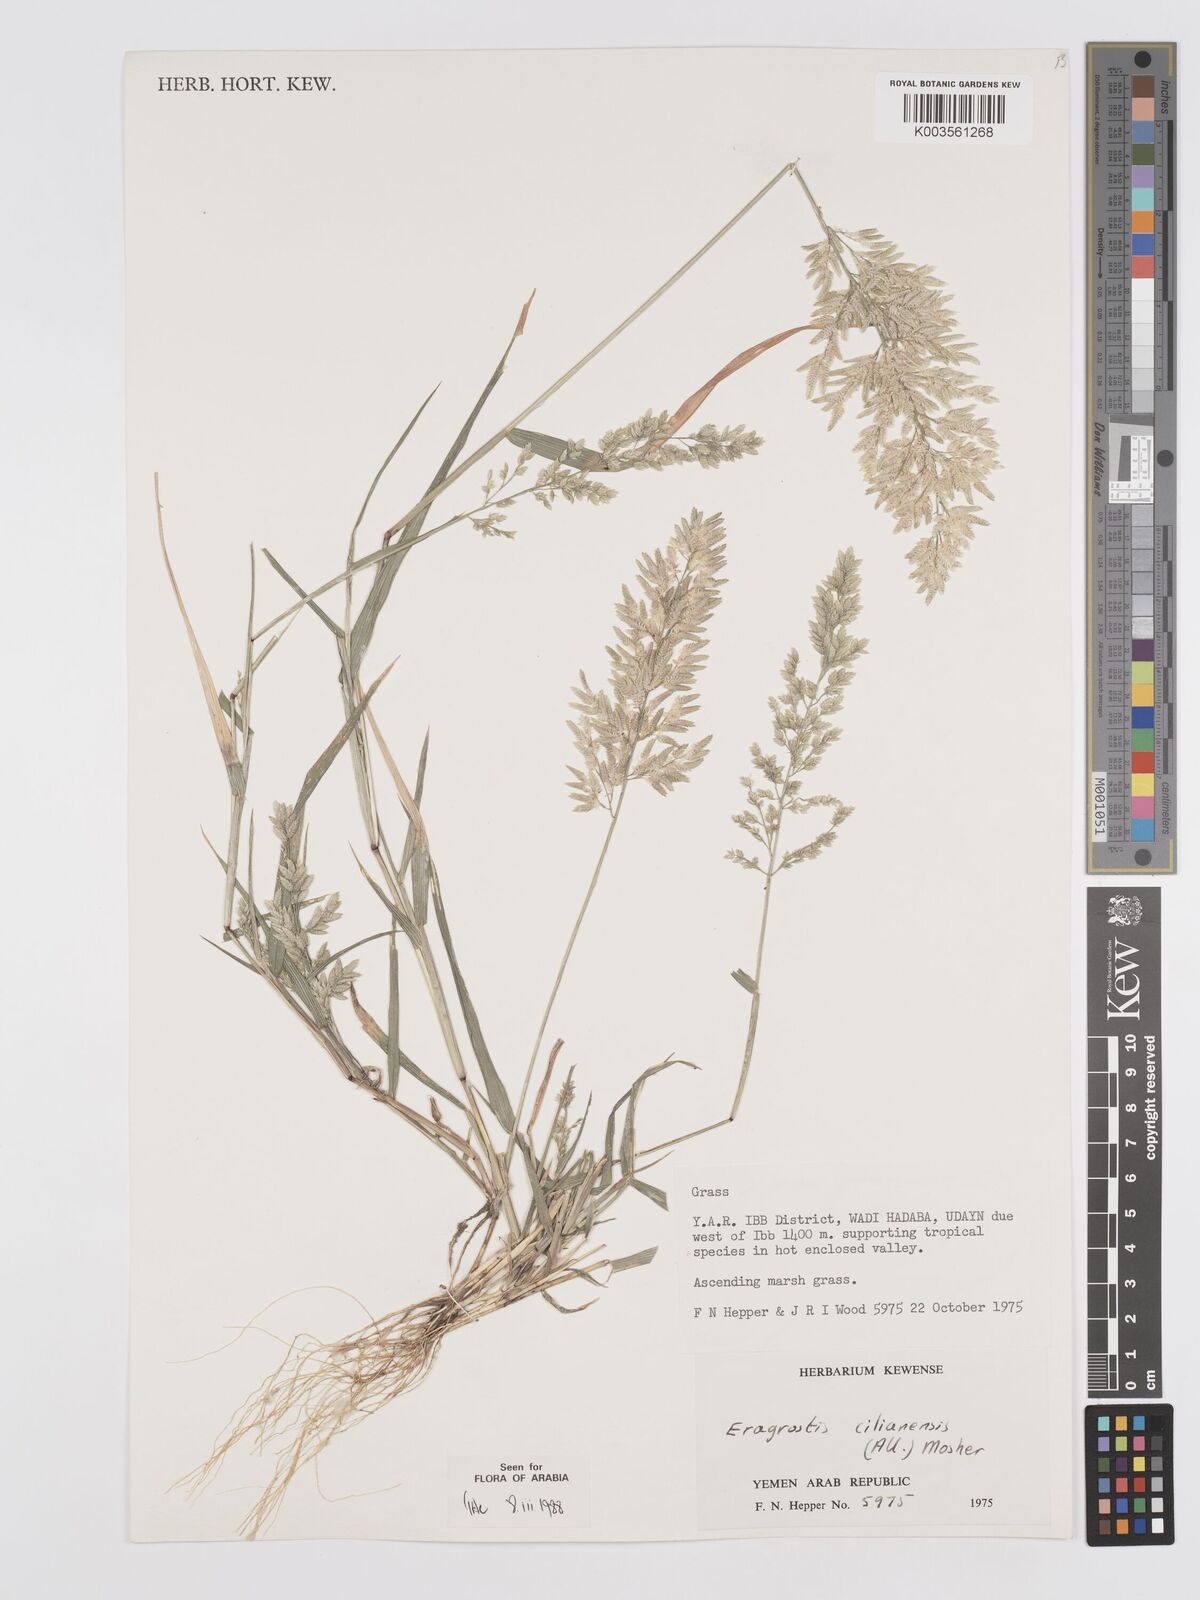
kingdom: Plantae
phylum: Tracheophyta
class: Liliopsida
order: Poales
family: Poaceae
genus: Eragrostis
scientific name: Eragrostis cilianensis
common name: Stinkgrass
